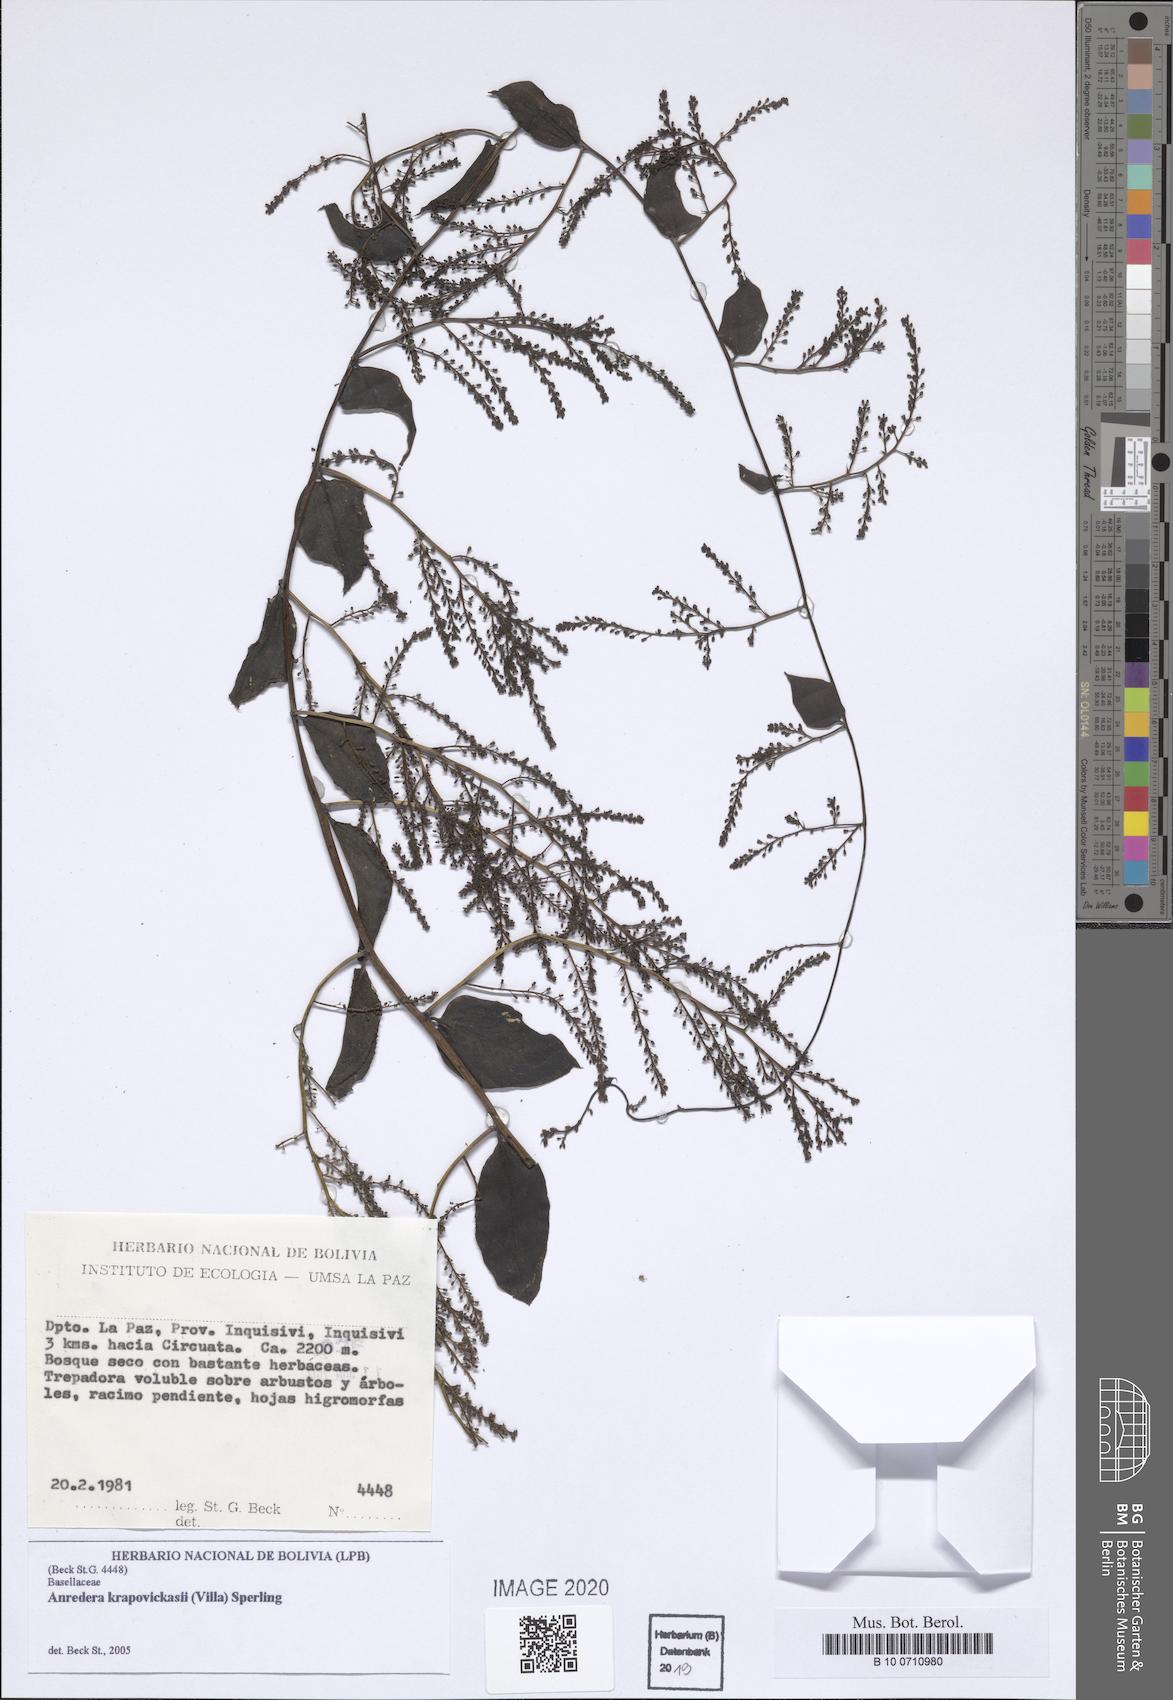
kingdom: Plantae
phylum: Tracheophyta
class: Magnoliopsida
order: Caryophyllales
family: Basellaceae
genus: Anredera
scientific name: Anredera krapovickasii
